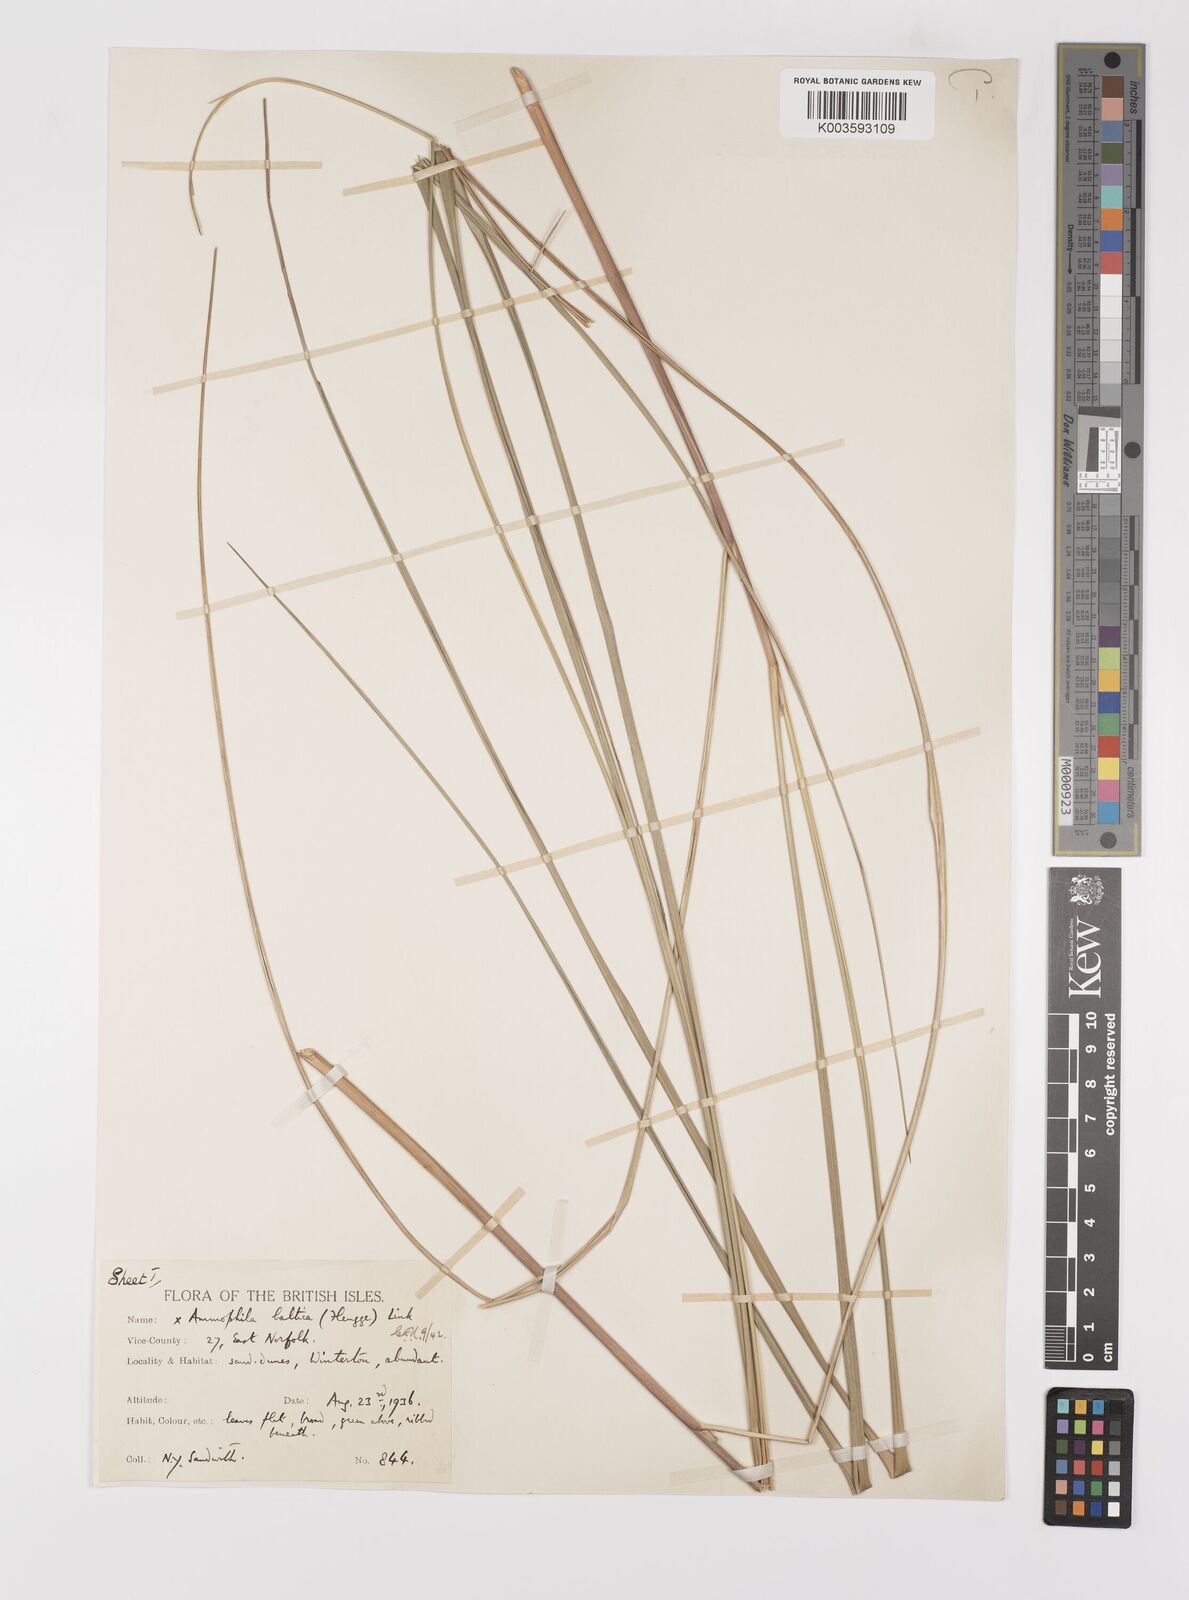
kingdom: Plantae
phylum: Tracheophyta
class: Liliopsida
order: Poales
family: Poaceae
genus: Calamagrostis
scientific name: Calamagrostis baltica
